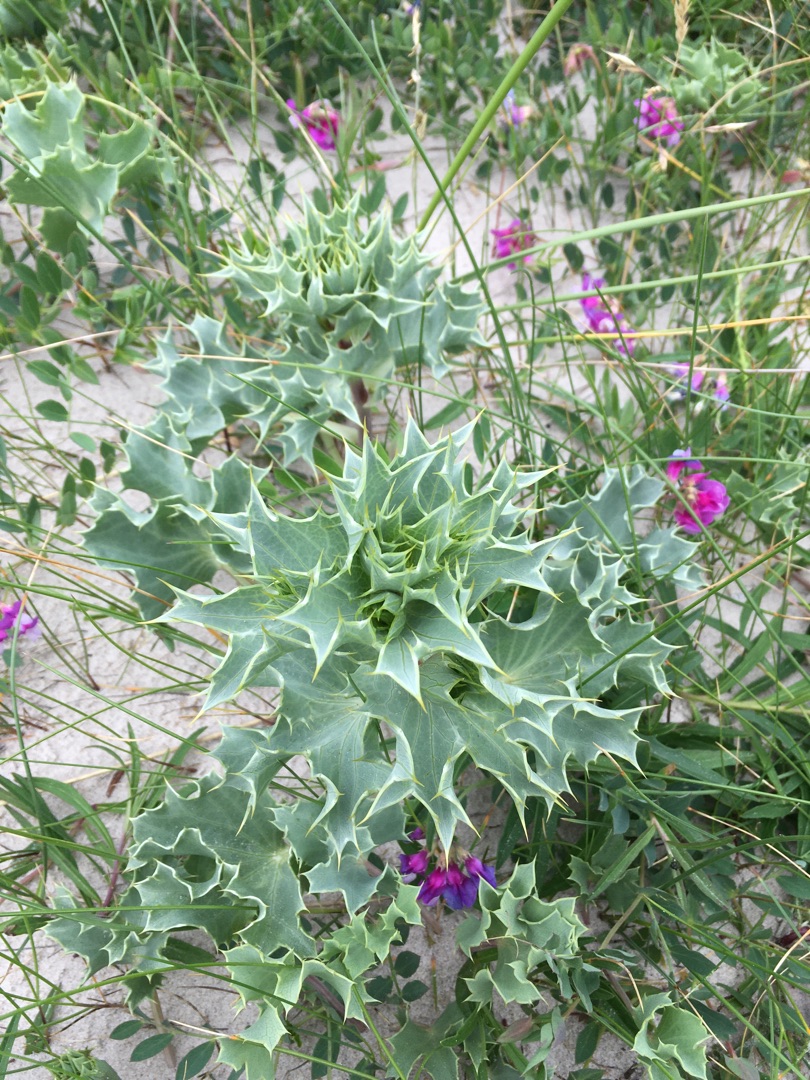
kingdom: Plantae
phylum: Tracheophyta
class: Magnoliopsida
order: Apiales
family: Apiaceae
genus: Eryngium
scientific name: Eryngium maritimum
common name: Strand-mandstro
